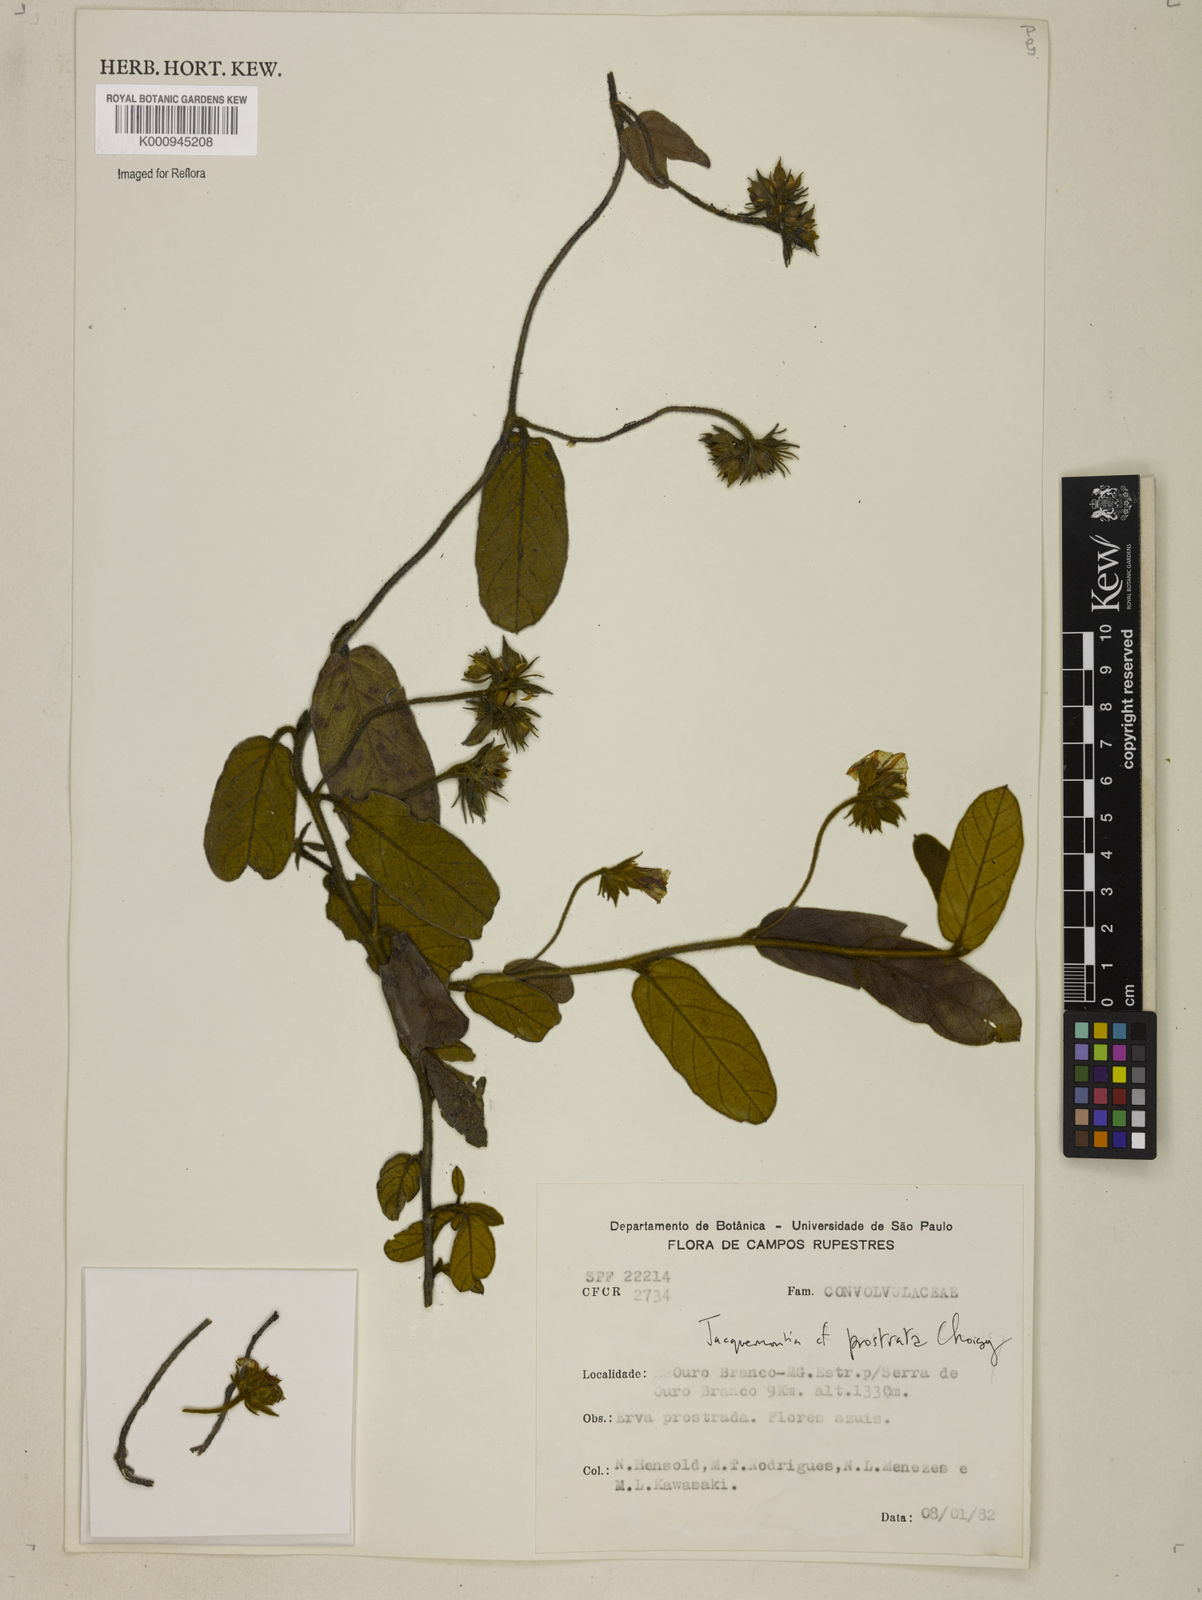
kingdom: Plantae
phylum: Tracheophyta
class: Magnoliopsida
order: Solanales
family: Convolvulaceae
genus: Jacquemontia
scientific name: Jacquemontia prostrata
